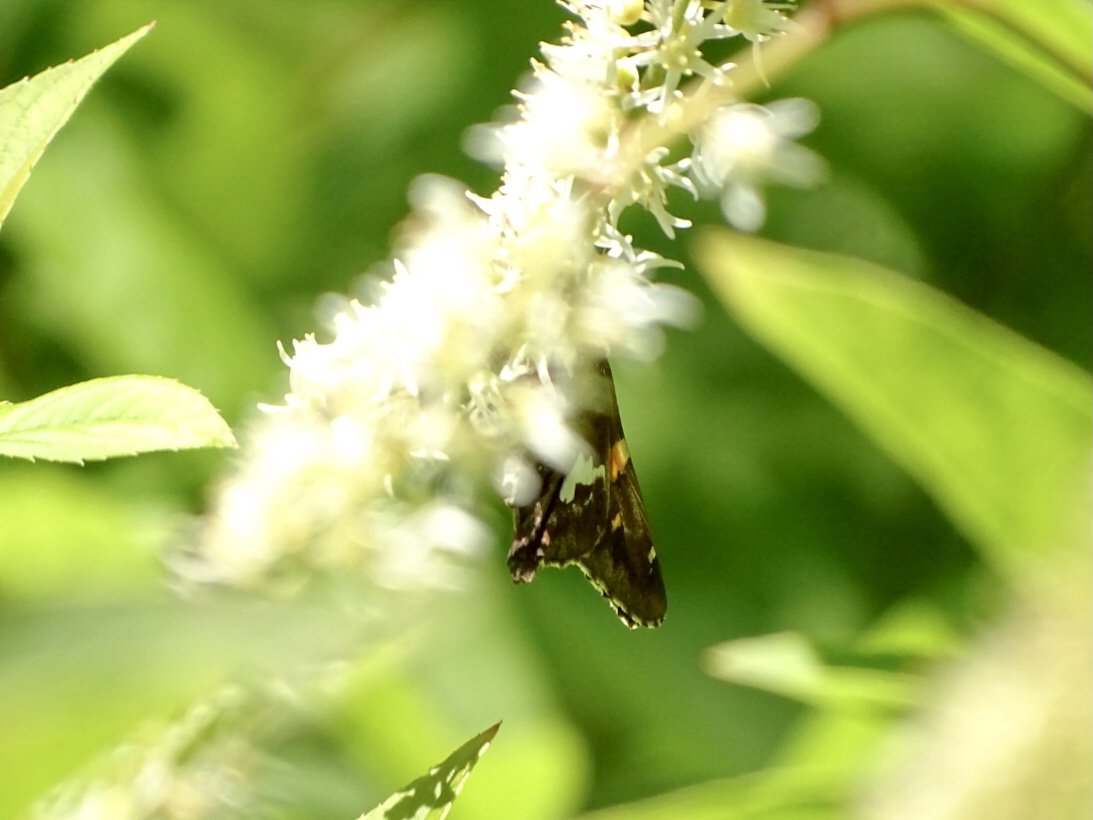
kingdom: Animalia
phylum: Arthropoda
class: Insecta
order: Lepidoptera
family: Hesperiidae
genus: Epargyreus
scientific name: Epargyreus clarus
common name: Silver-spotted Skipper
